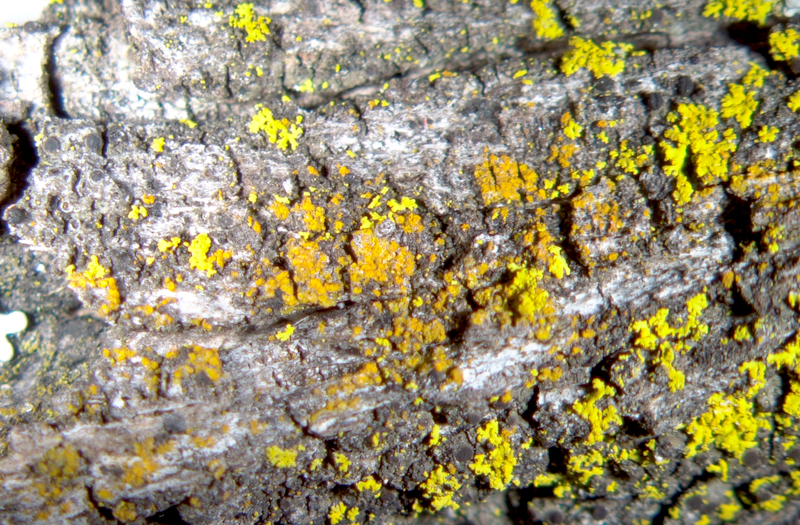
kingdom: Fungi
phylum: Ascomycota
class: Candelariomycetes
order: Candelariales
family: Candelariaceae
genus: Candelaria
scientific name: Candelaria concolor
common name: Candleflame lichen
